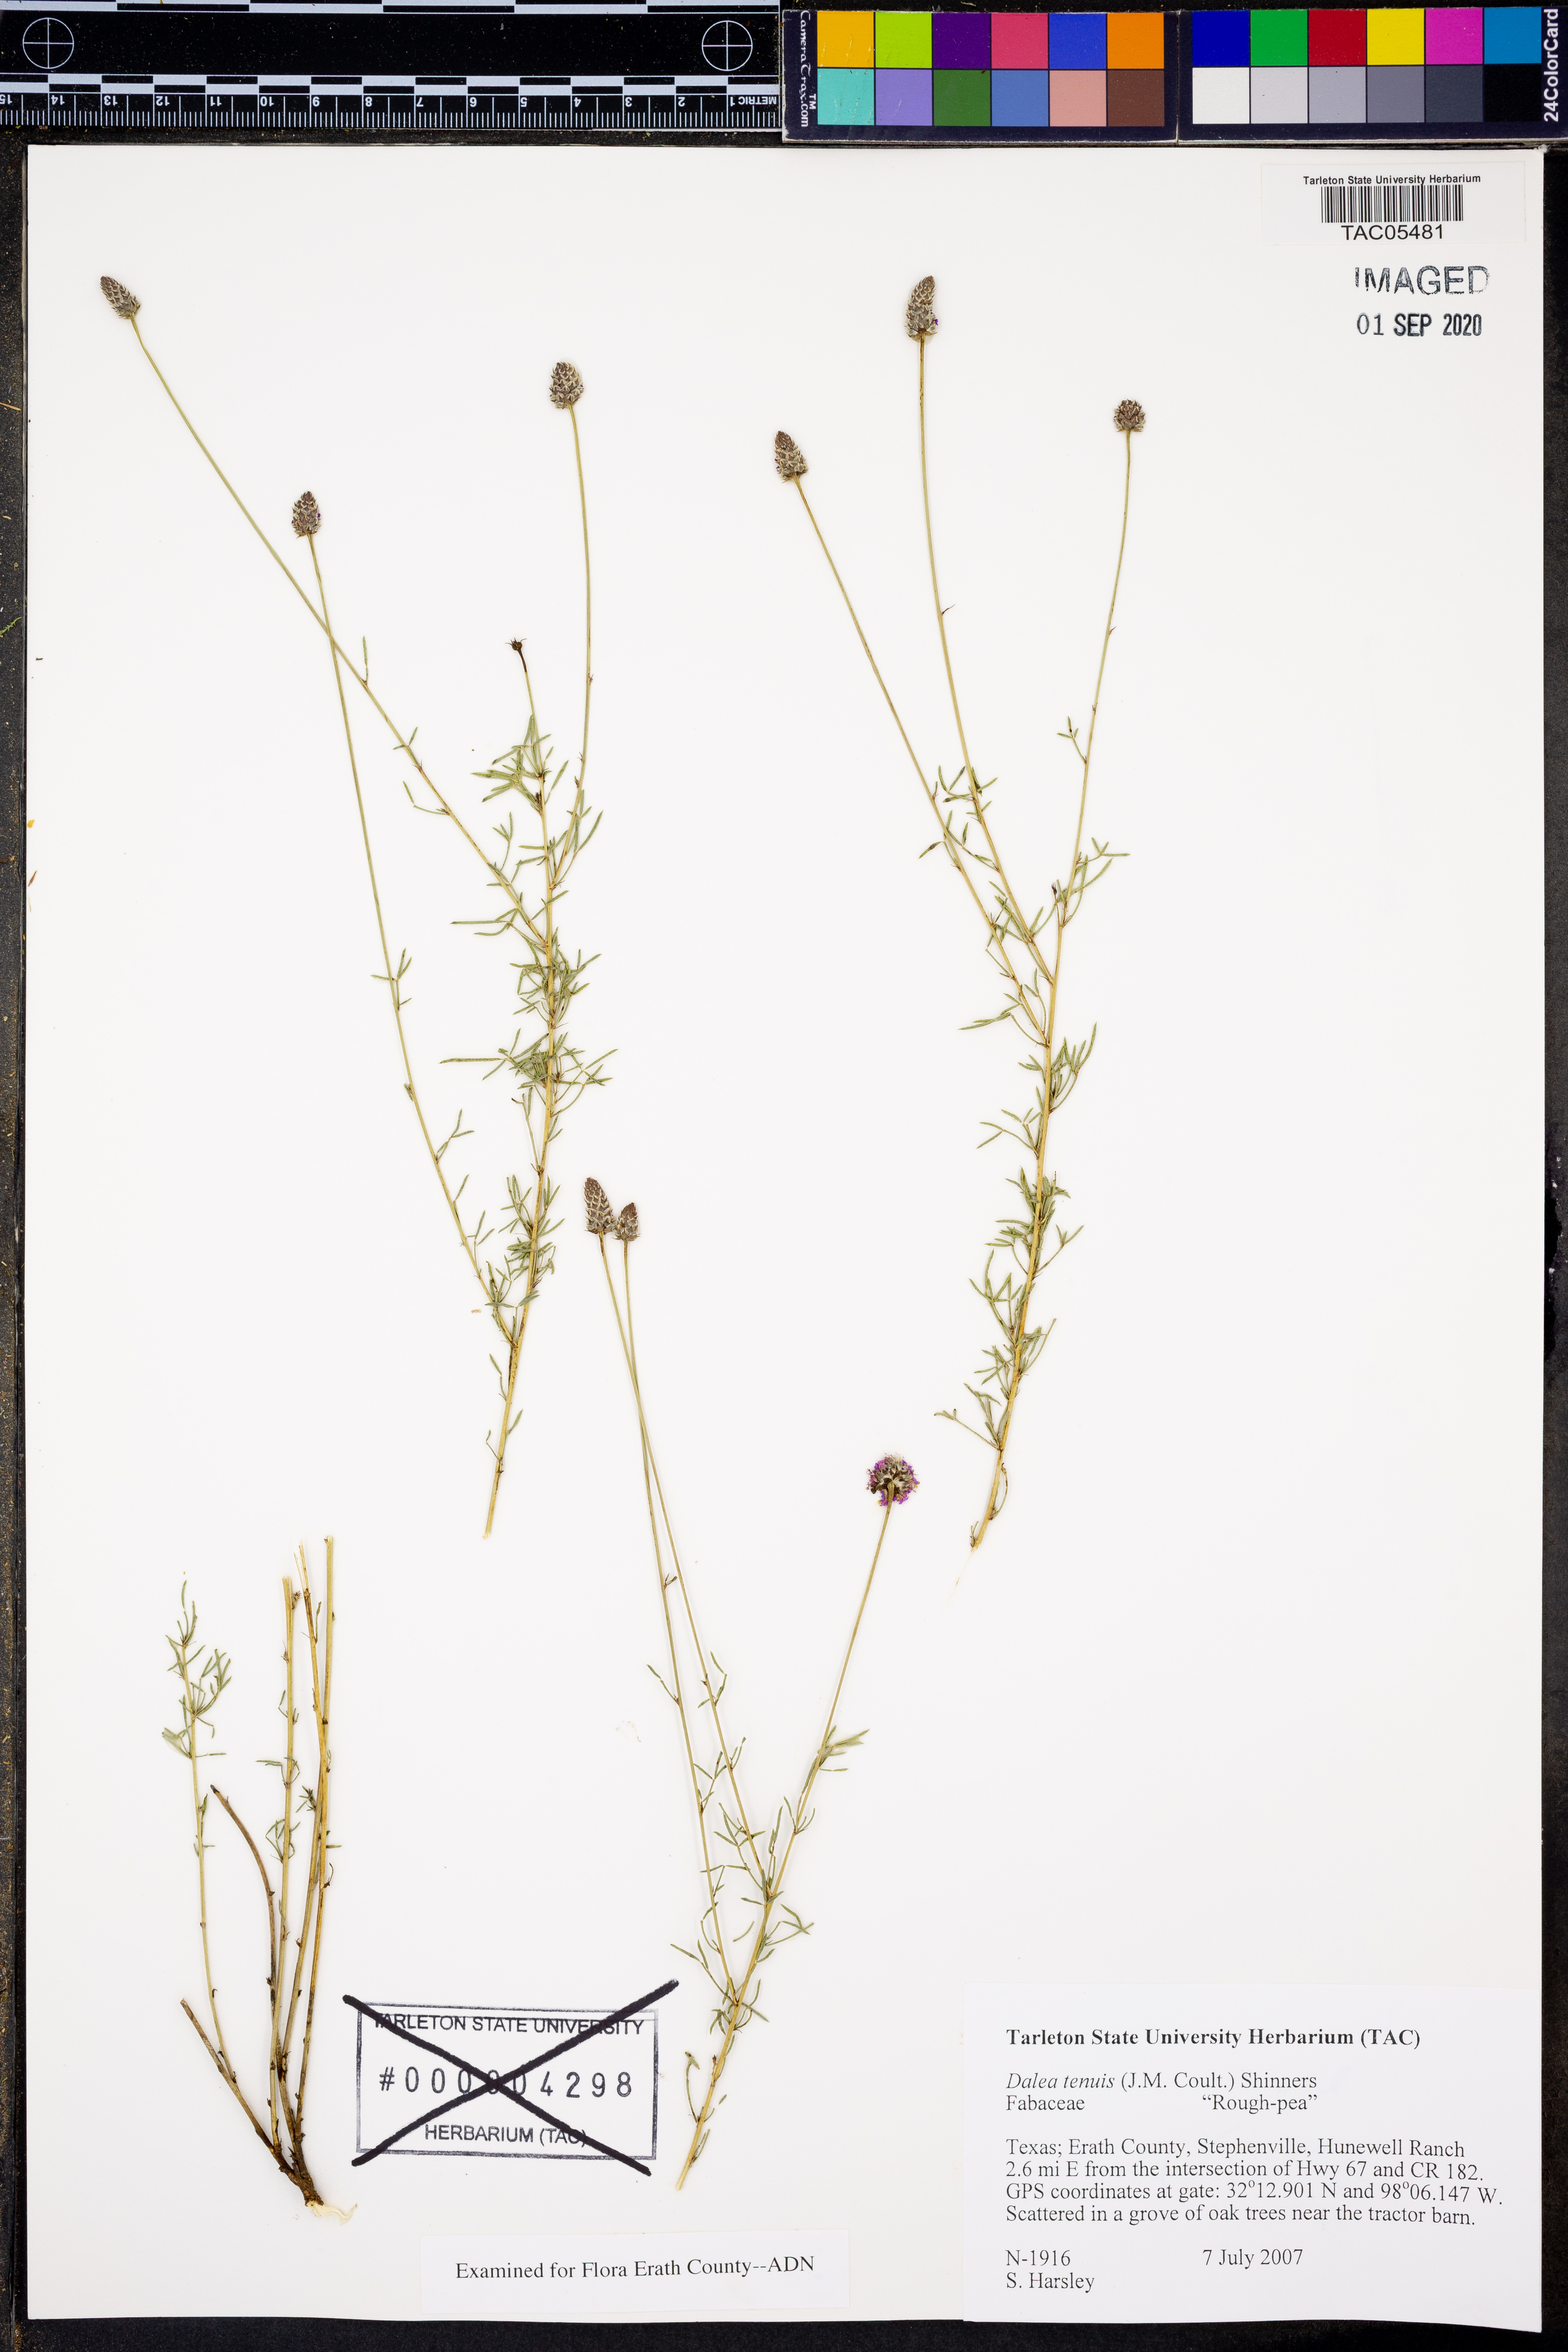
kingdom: Plantae
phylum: Tracheophyta
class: Magnoliopsida
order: Fabales
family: Fabaceae
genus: Dalea
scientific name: Dalea tenuis
